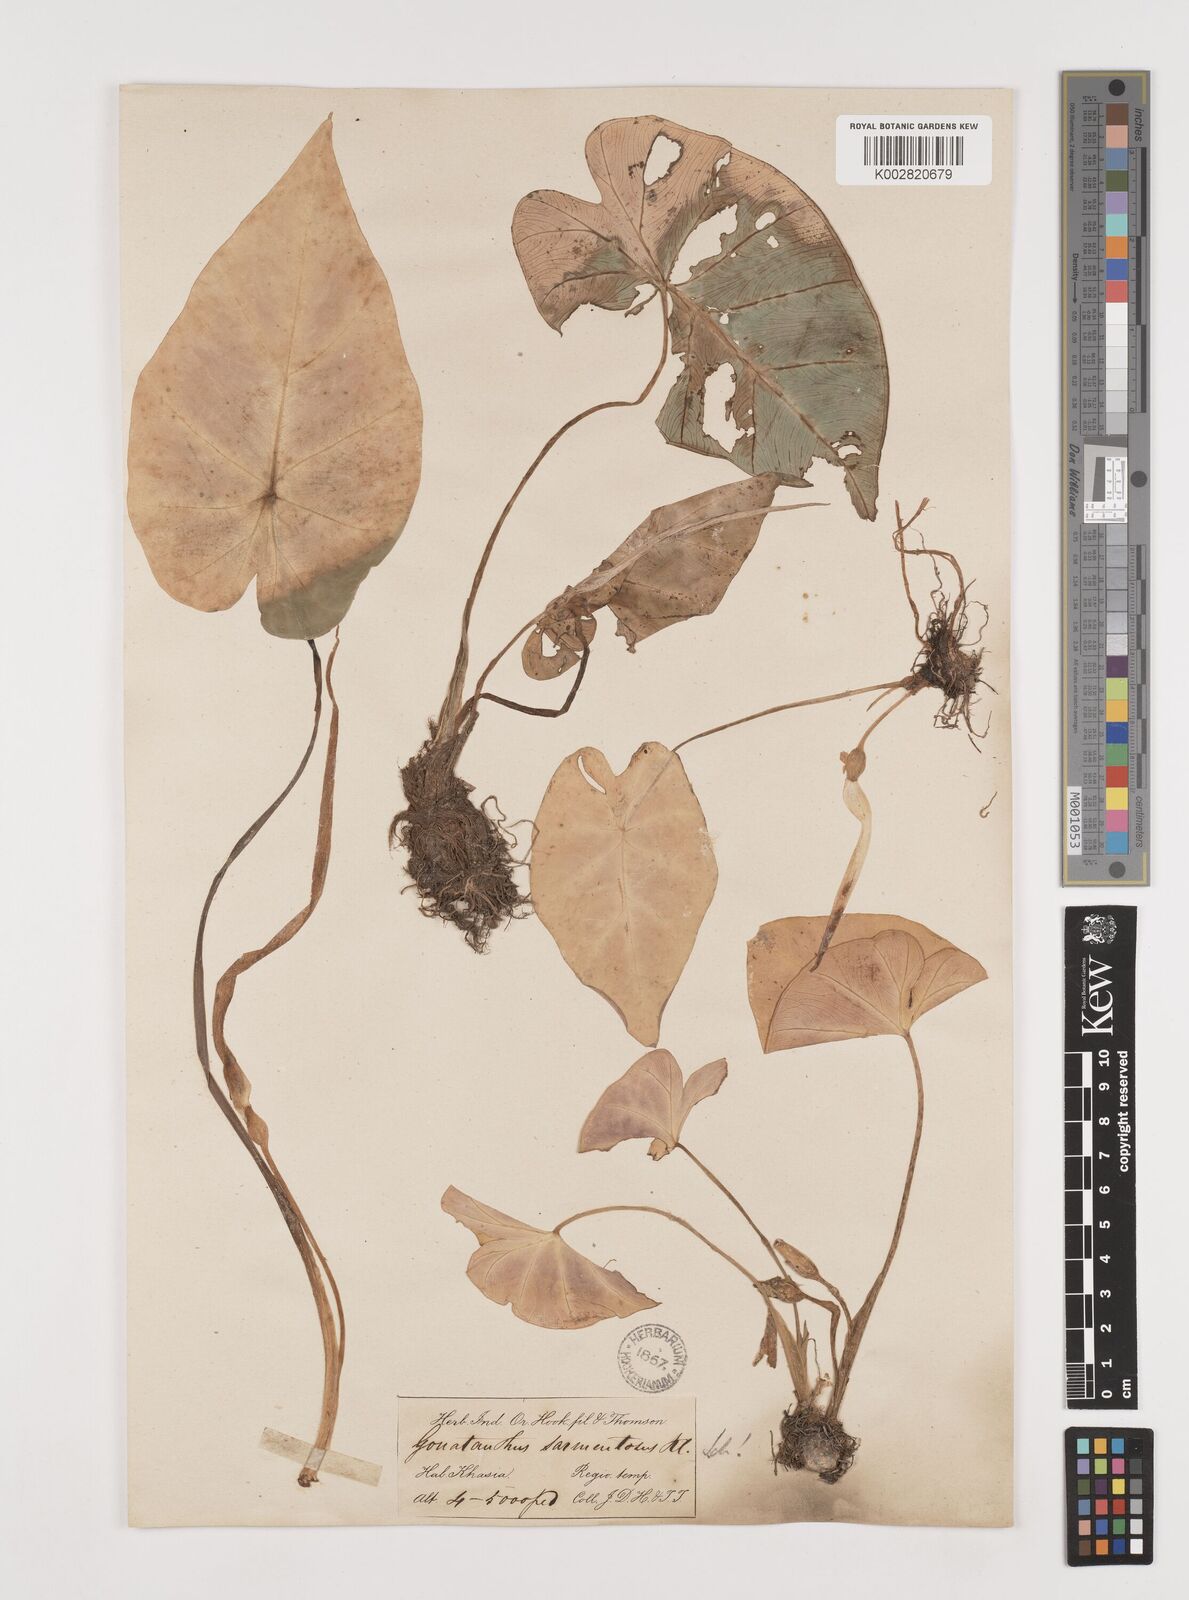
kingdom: Plantae
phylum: Tracheophyta
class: Liliopsida
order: Alismatales
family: Araceae
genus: Remusatia
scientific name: Remusatia pumila
